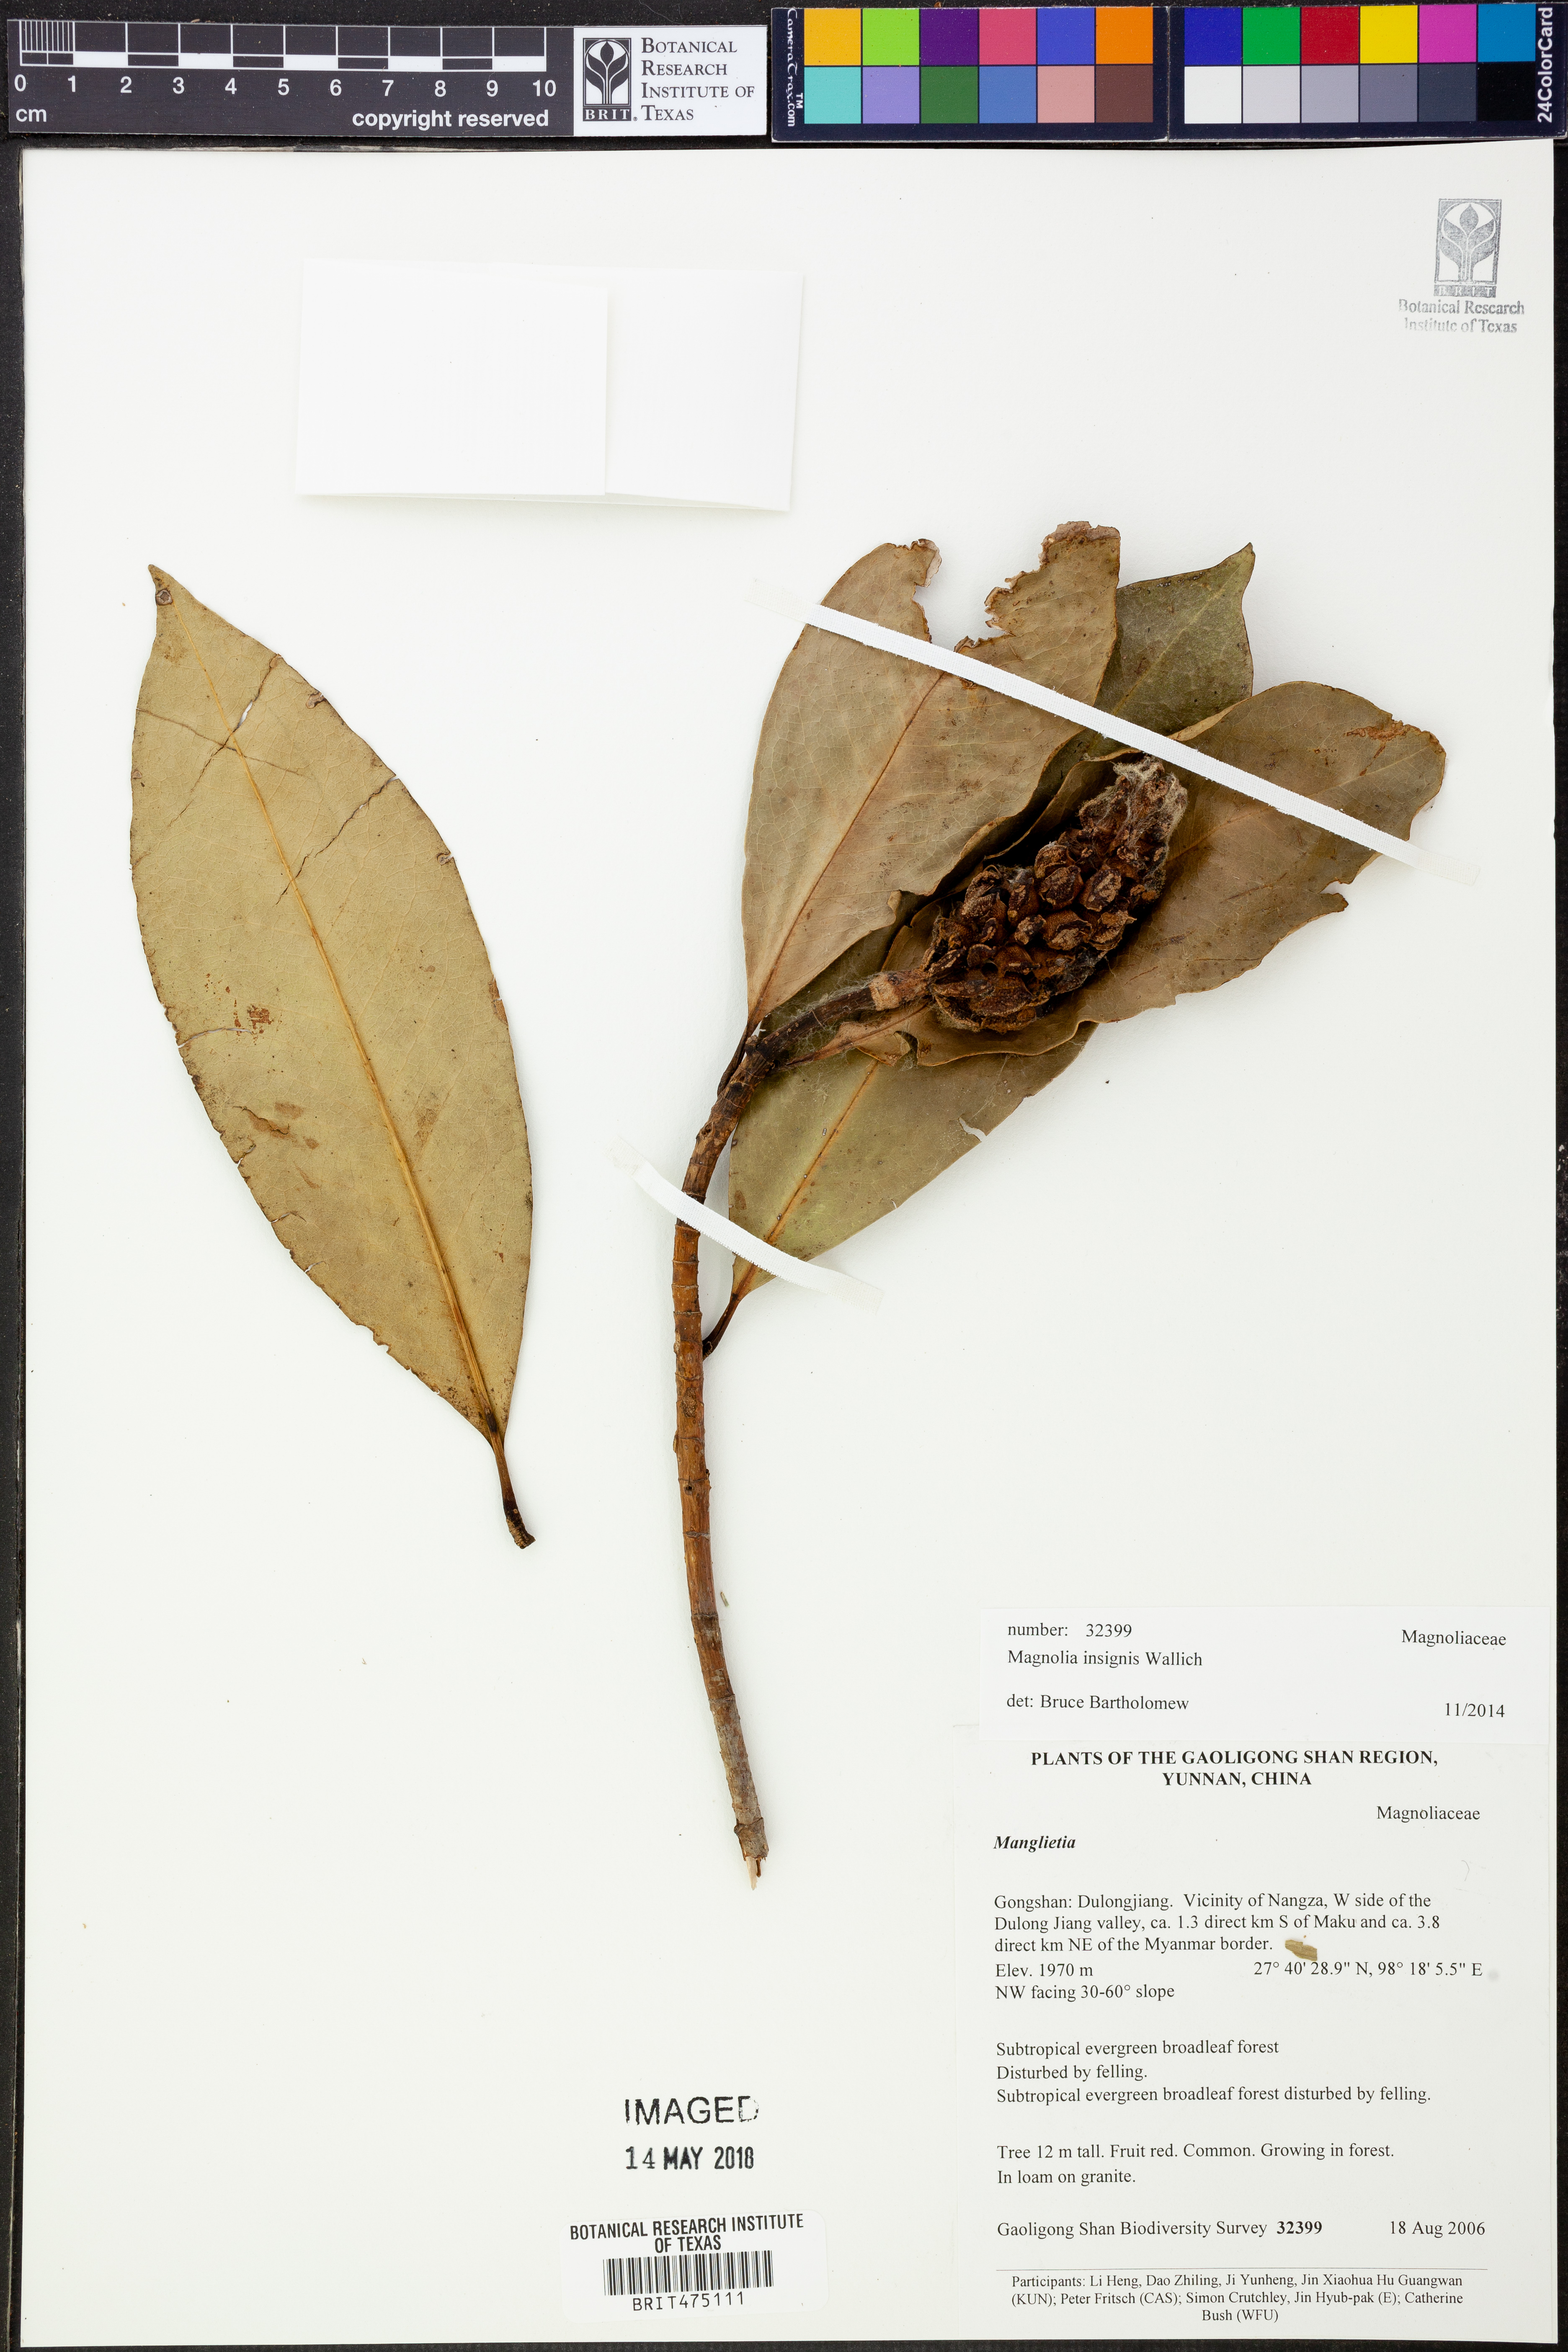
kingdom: Plantae
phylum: Tracheophyta
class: Magnoliopsida
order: Magnoliales
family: Magnoliaceae
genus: Magnolia
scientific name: Magnolia insignis
